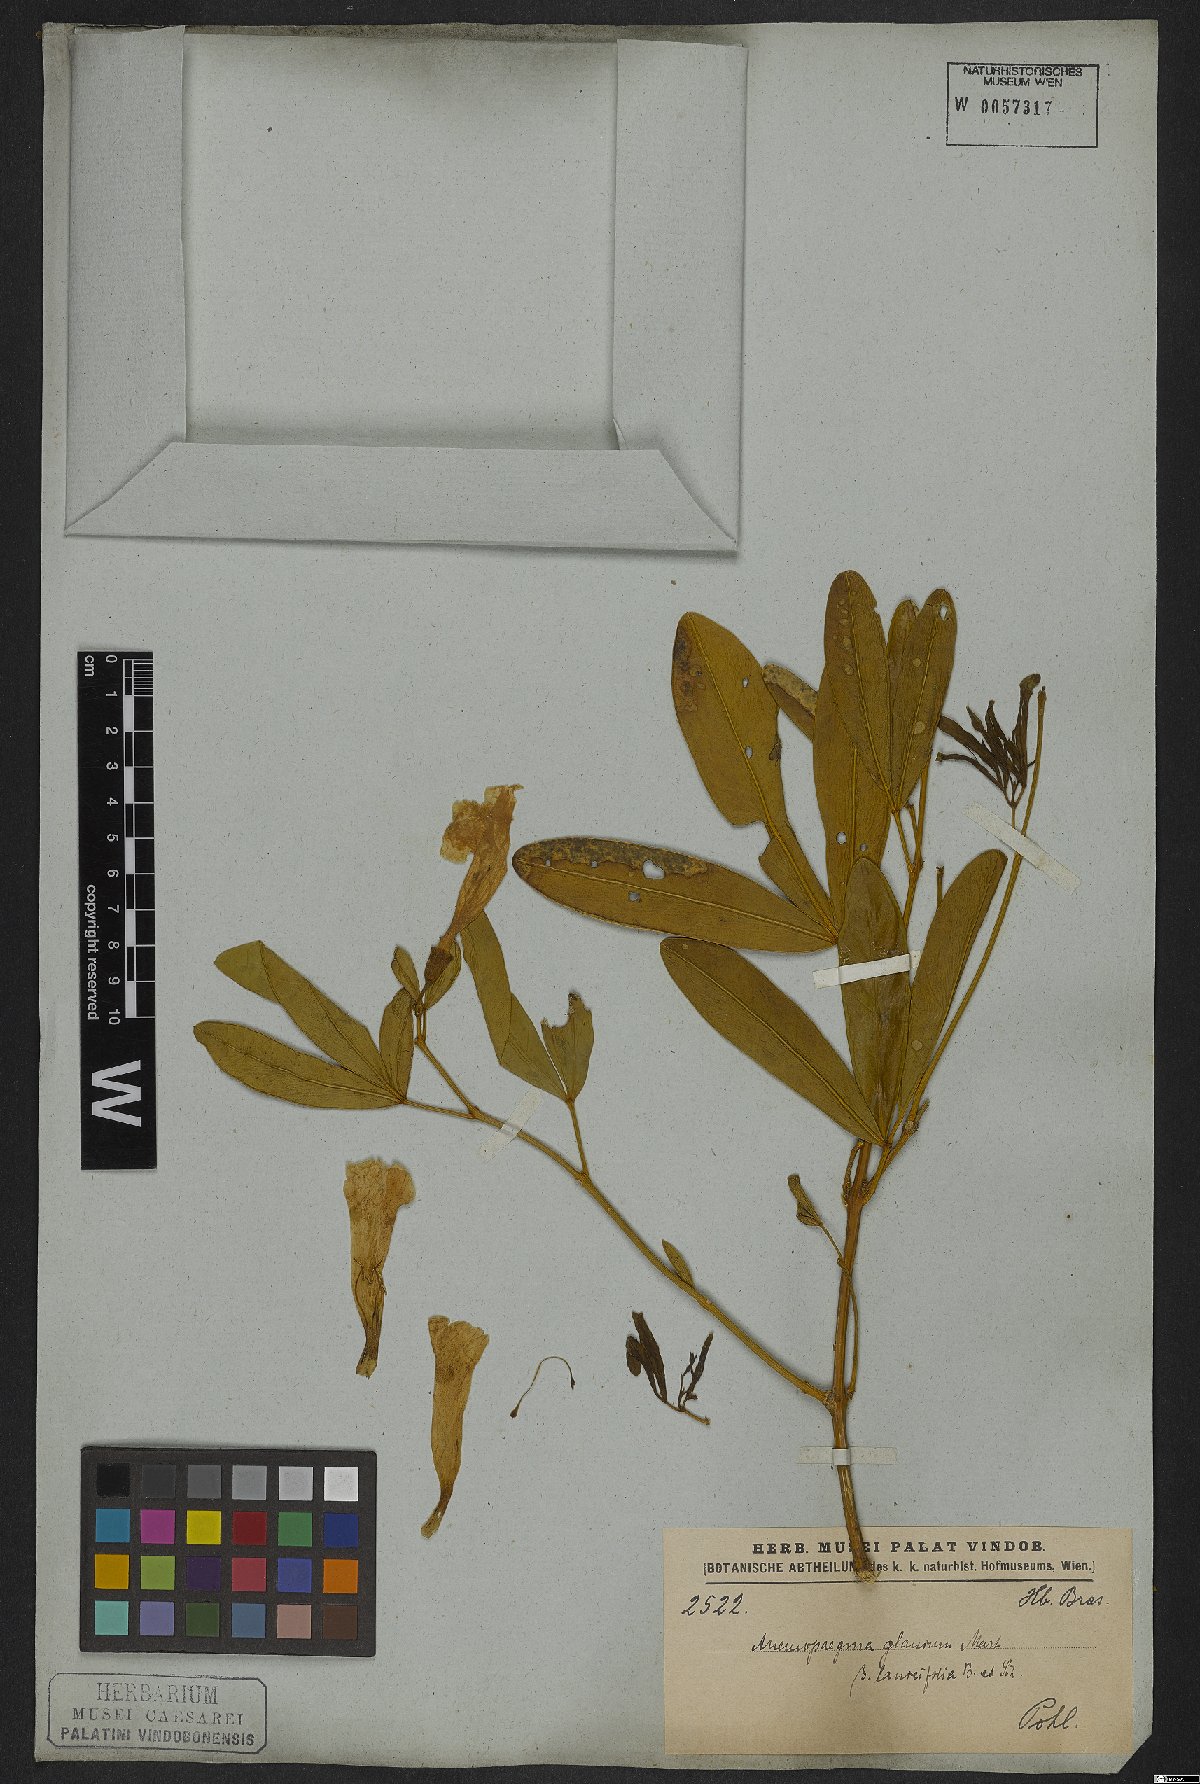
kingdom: Plantae
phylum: Tracheophyta
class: Magnoliopsida
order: Lamiales
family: Bignoniaceae
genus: Anemopaegma
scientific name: Anemopaegma glaucum
